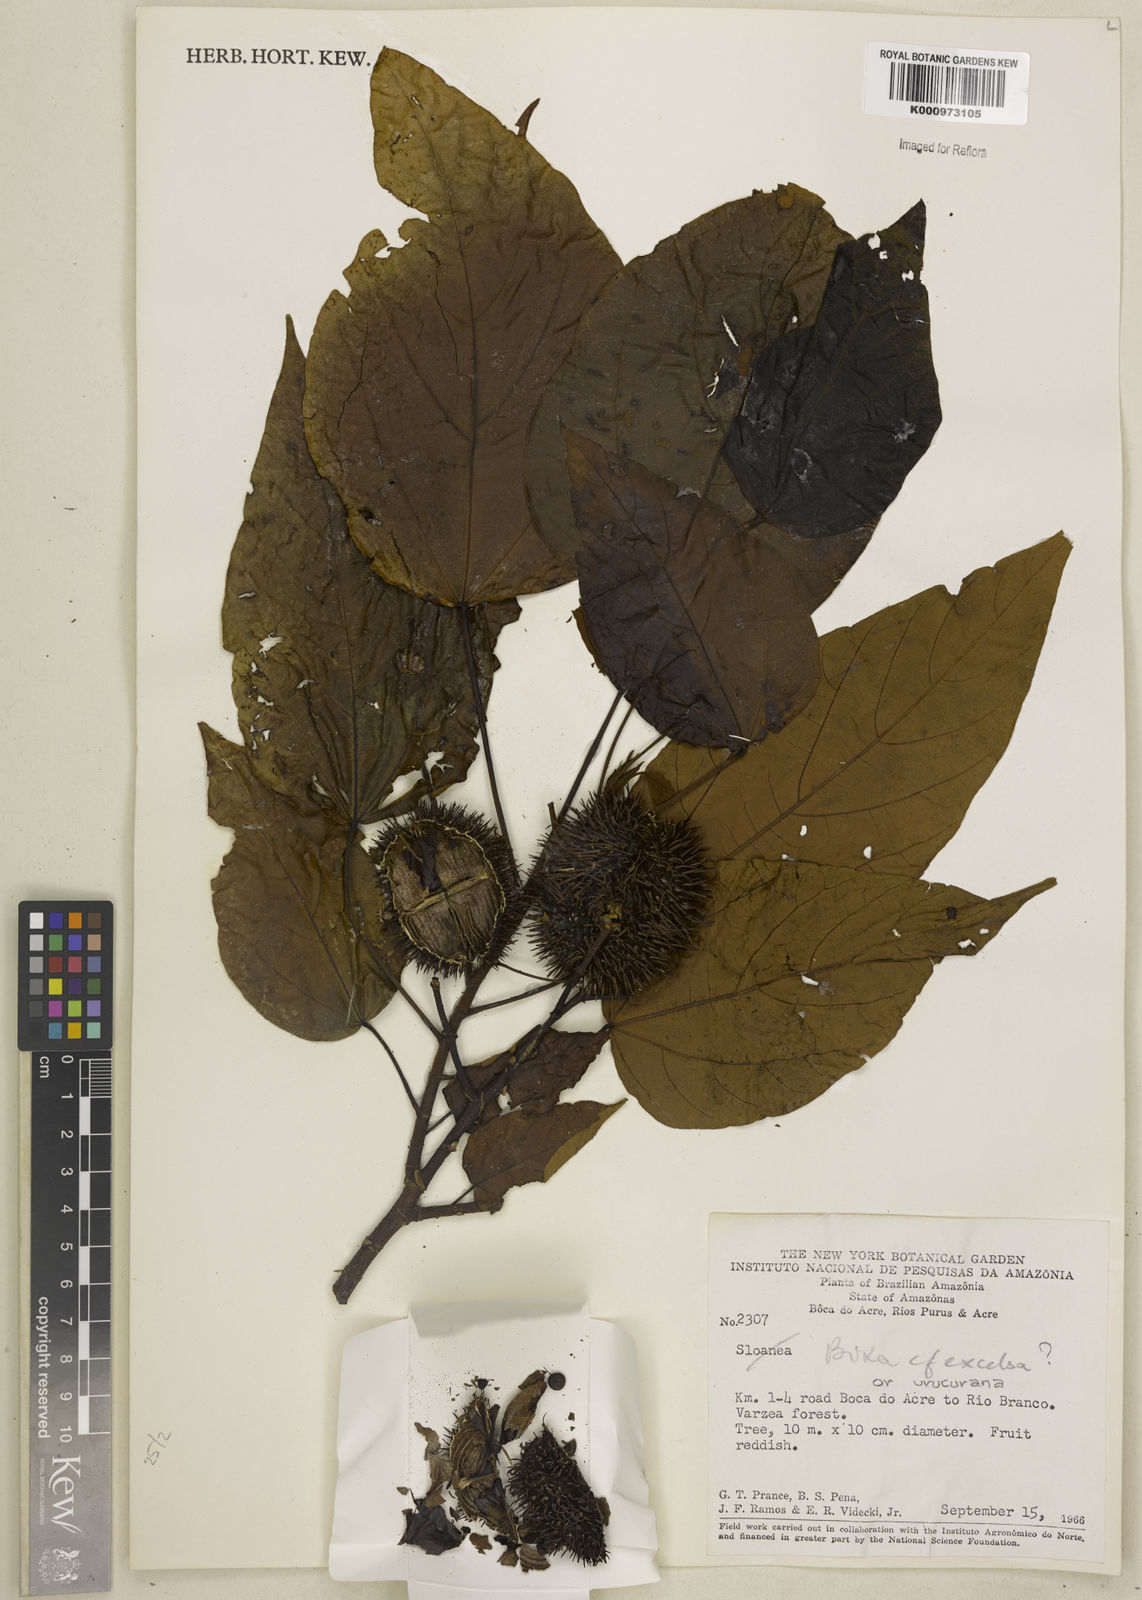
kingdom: Plantae
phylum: Tracheophyta
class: Magnoliopsida
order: Malvales
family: Bixaceae
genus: Bixa
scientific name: Bixa excelsa
